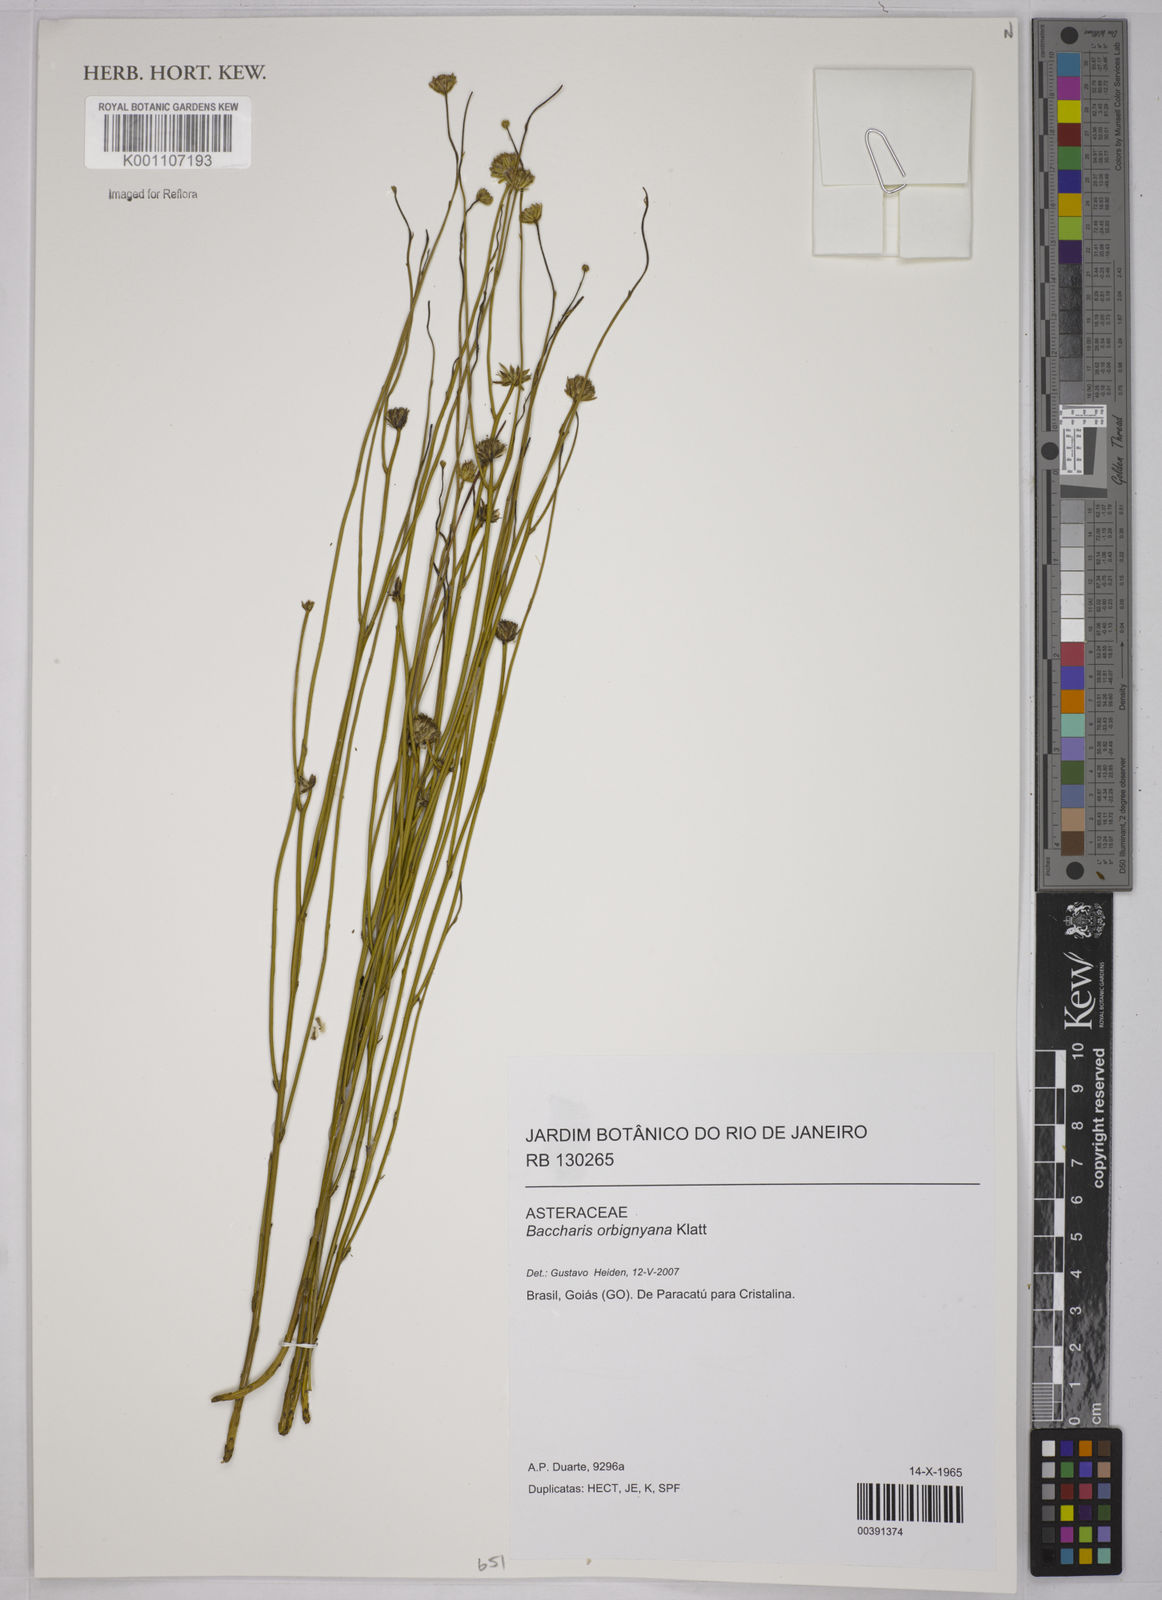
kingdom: Plantae
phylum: Tracheophyta
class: Magnoliopsida
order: Asterales
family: Asteraceae
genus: Baccharis
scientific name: Baccharis orbignyana
